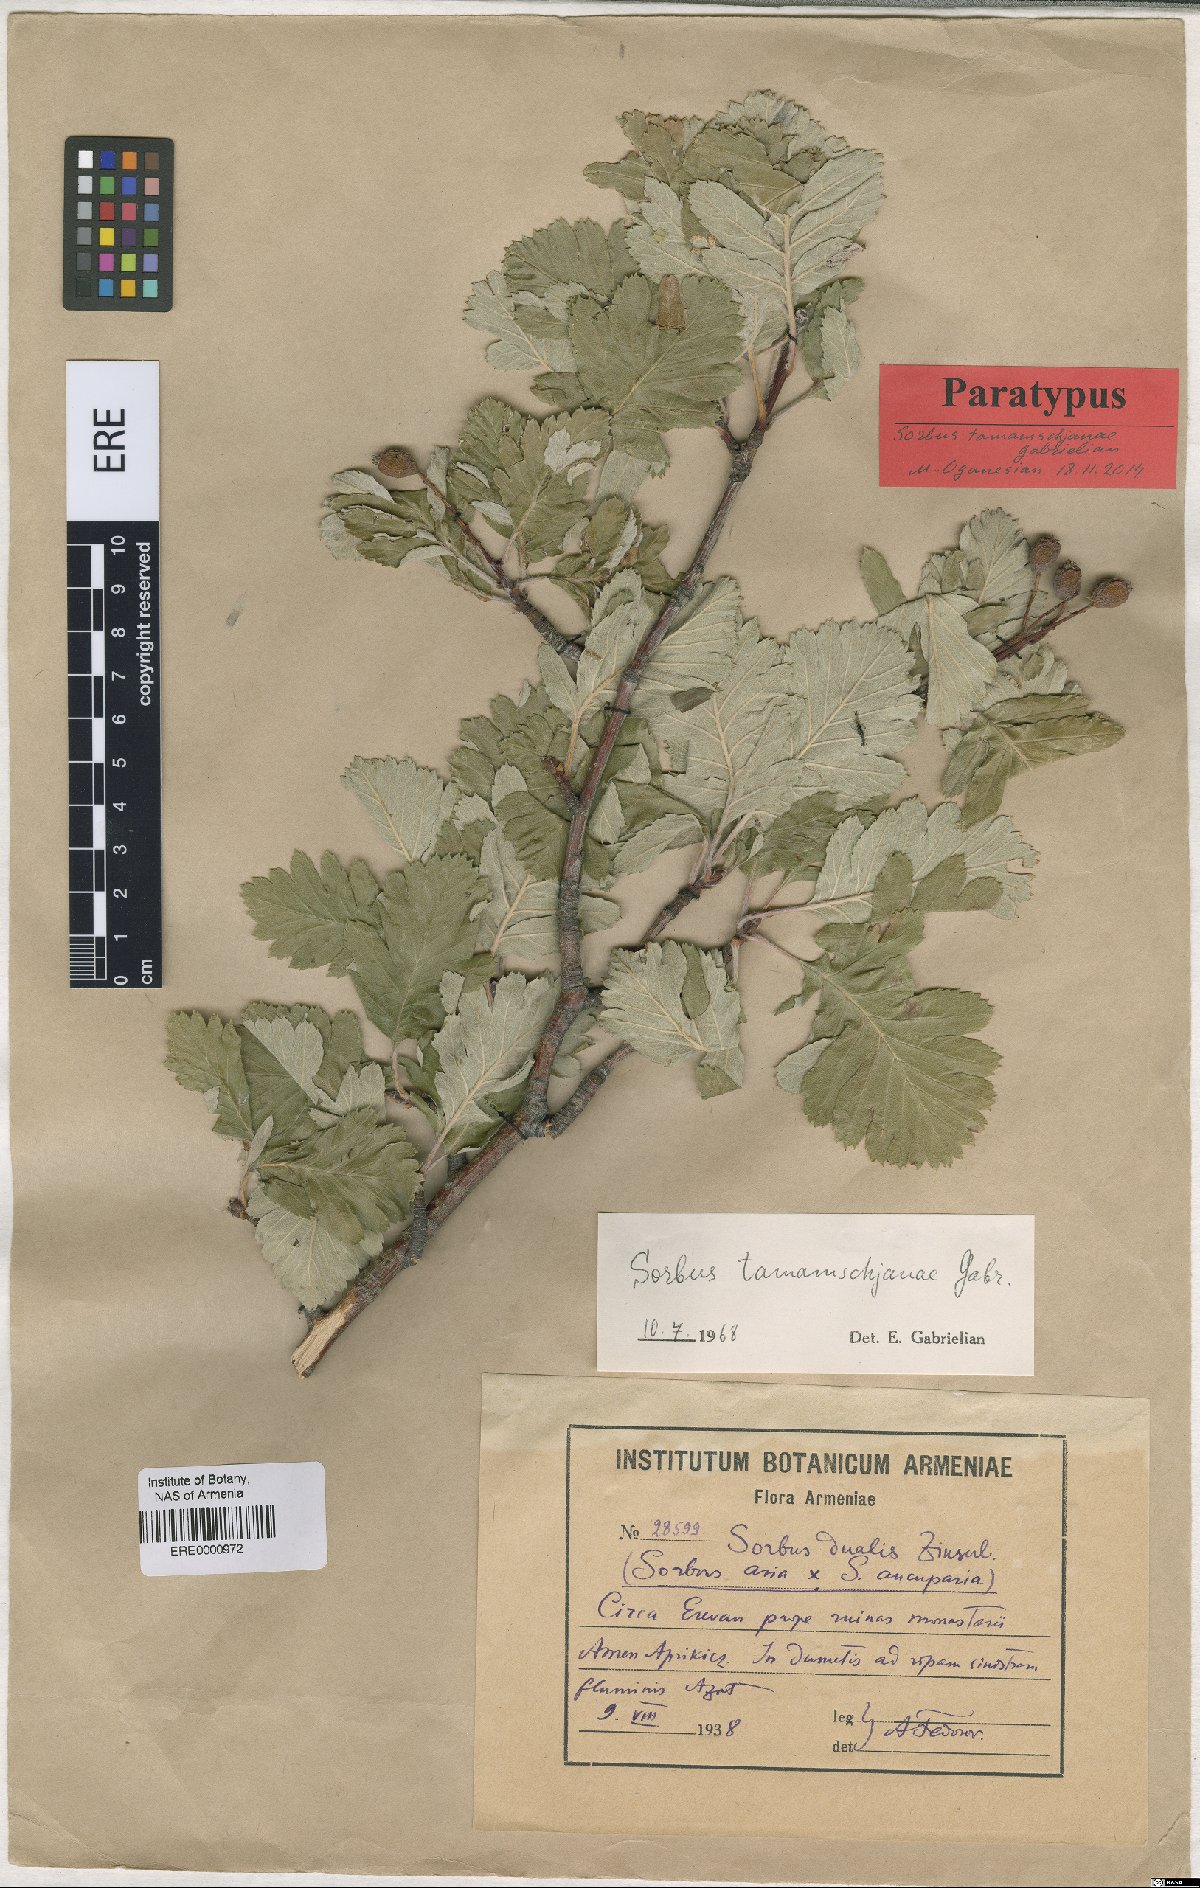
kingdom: Plantae
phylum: Tracheophyta
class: Magnoliopsida
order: Rosales
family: Rosaceae
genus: Hedlundia
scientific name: Hedlundia tamamschjanae
